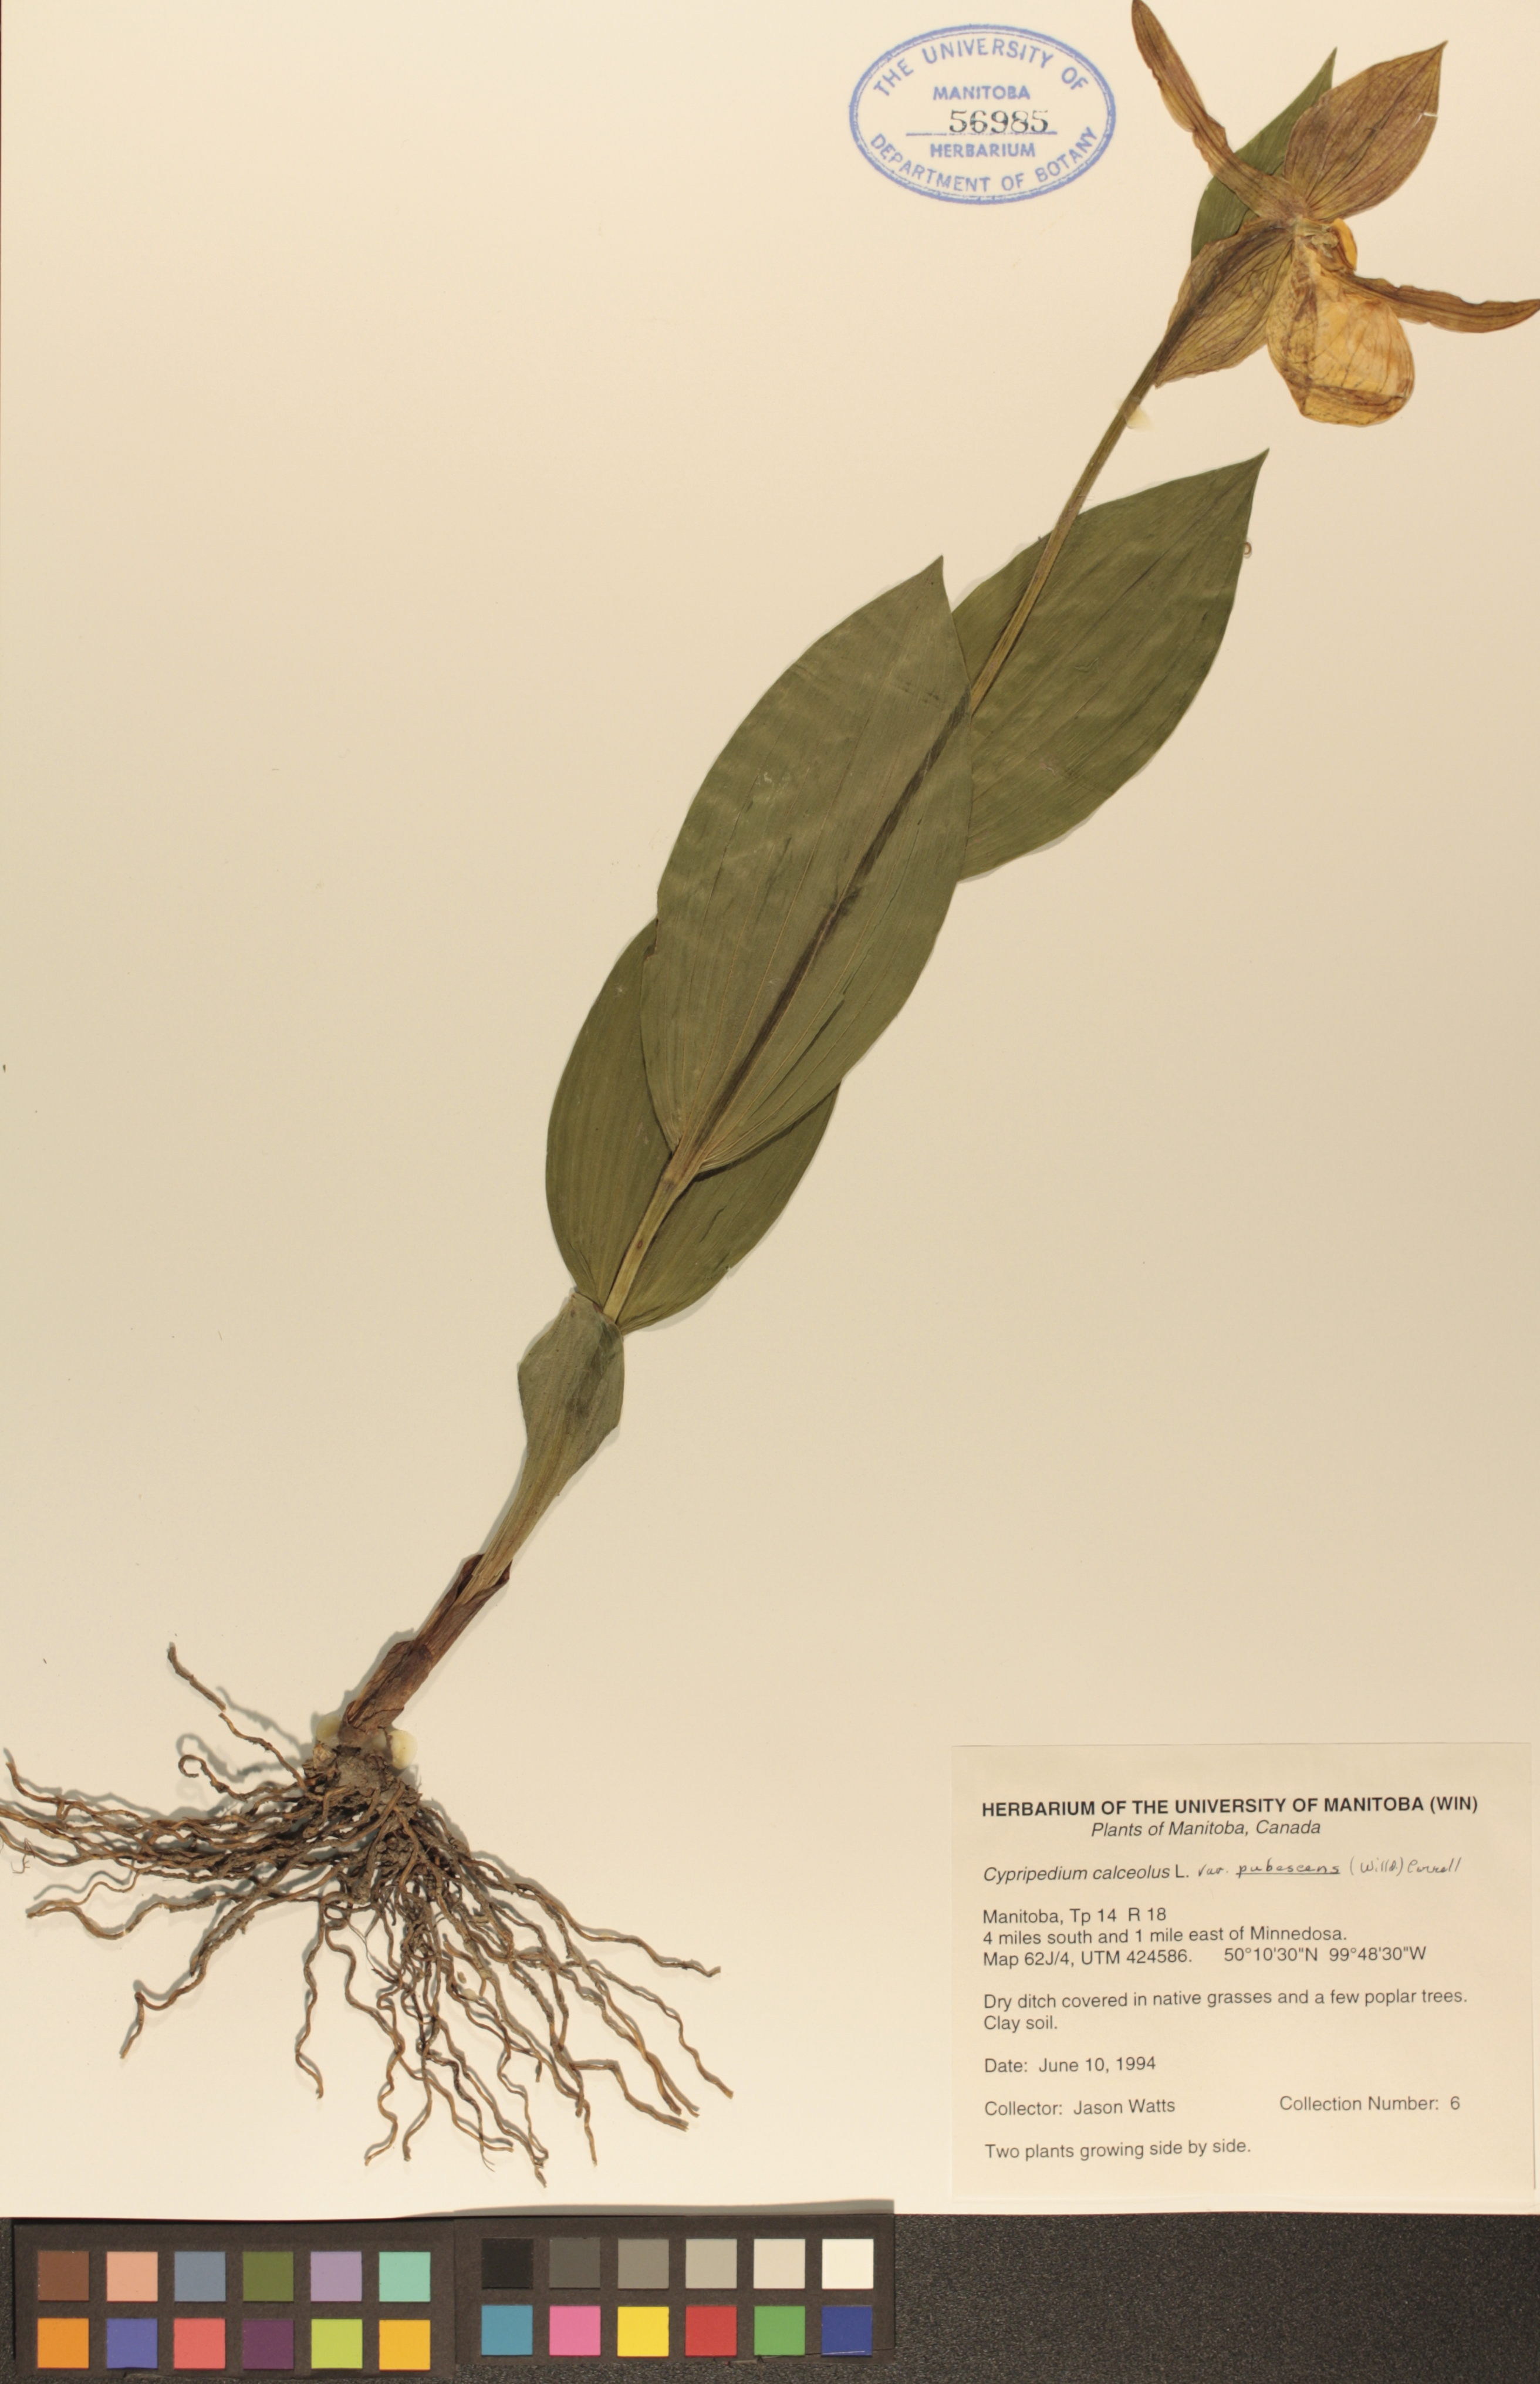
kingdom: Plantae
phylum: Tracheophyta
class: Liliopsida
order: Asparagales
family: Orchidaceae
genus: Cypripedium
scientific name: Cypripedium parviflorum
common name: American yellow lady's-slipper
